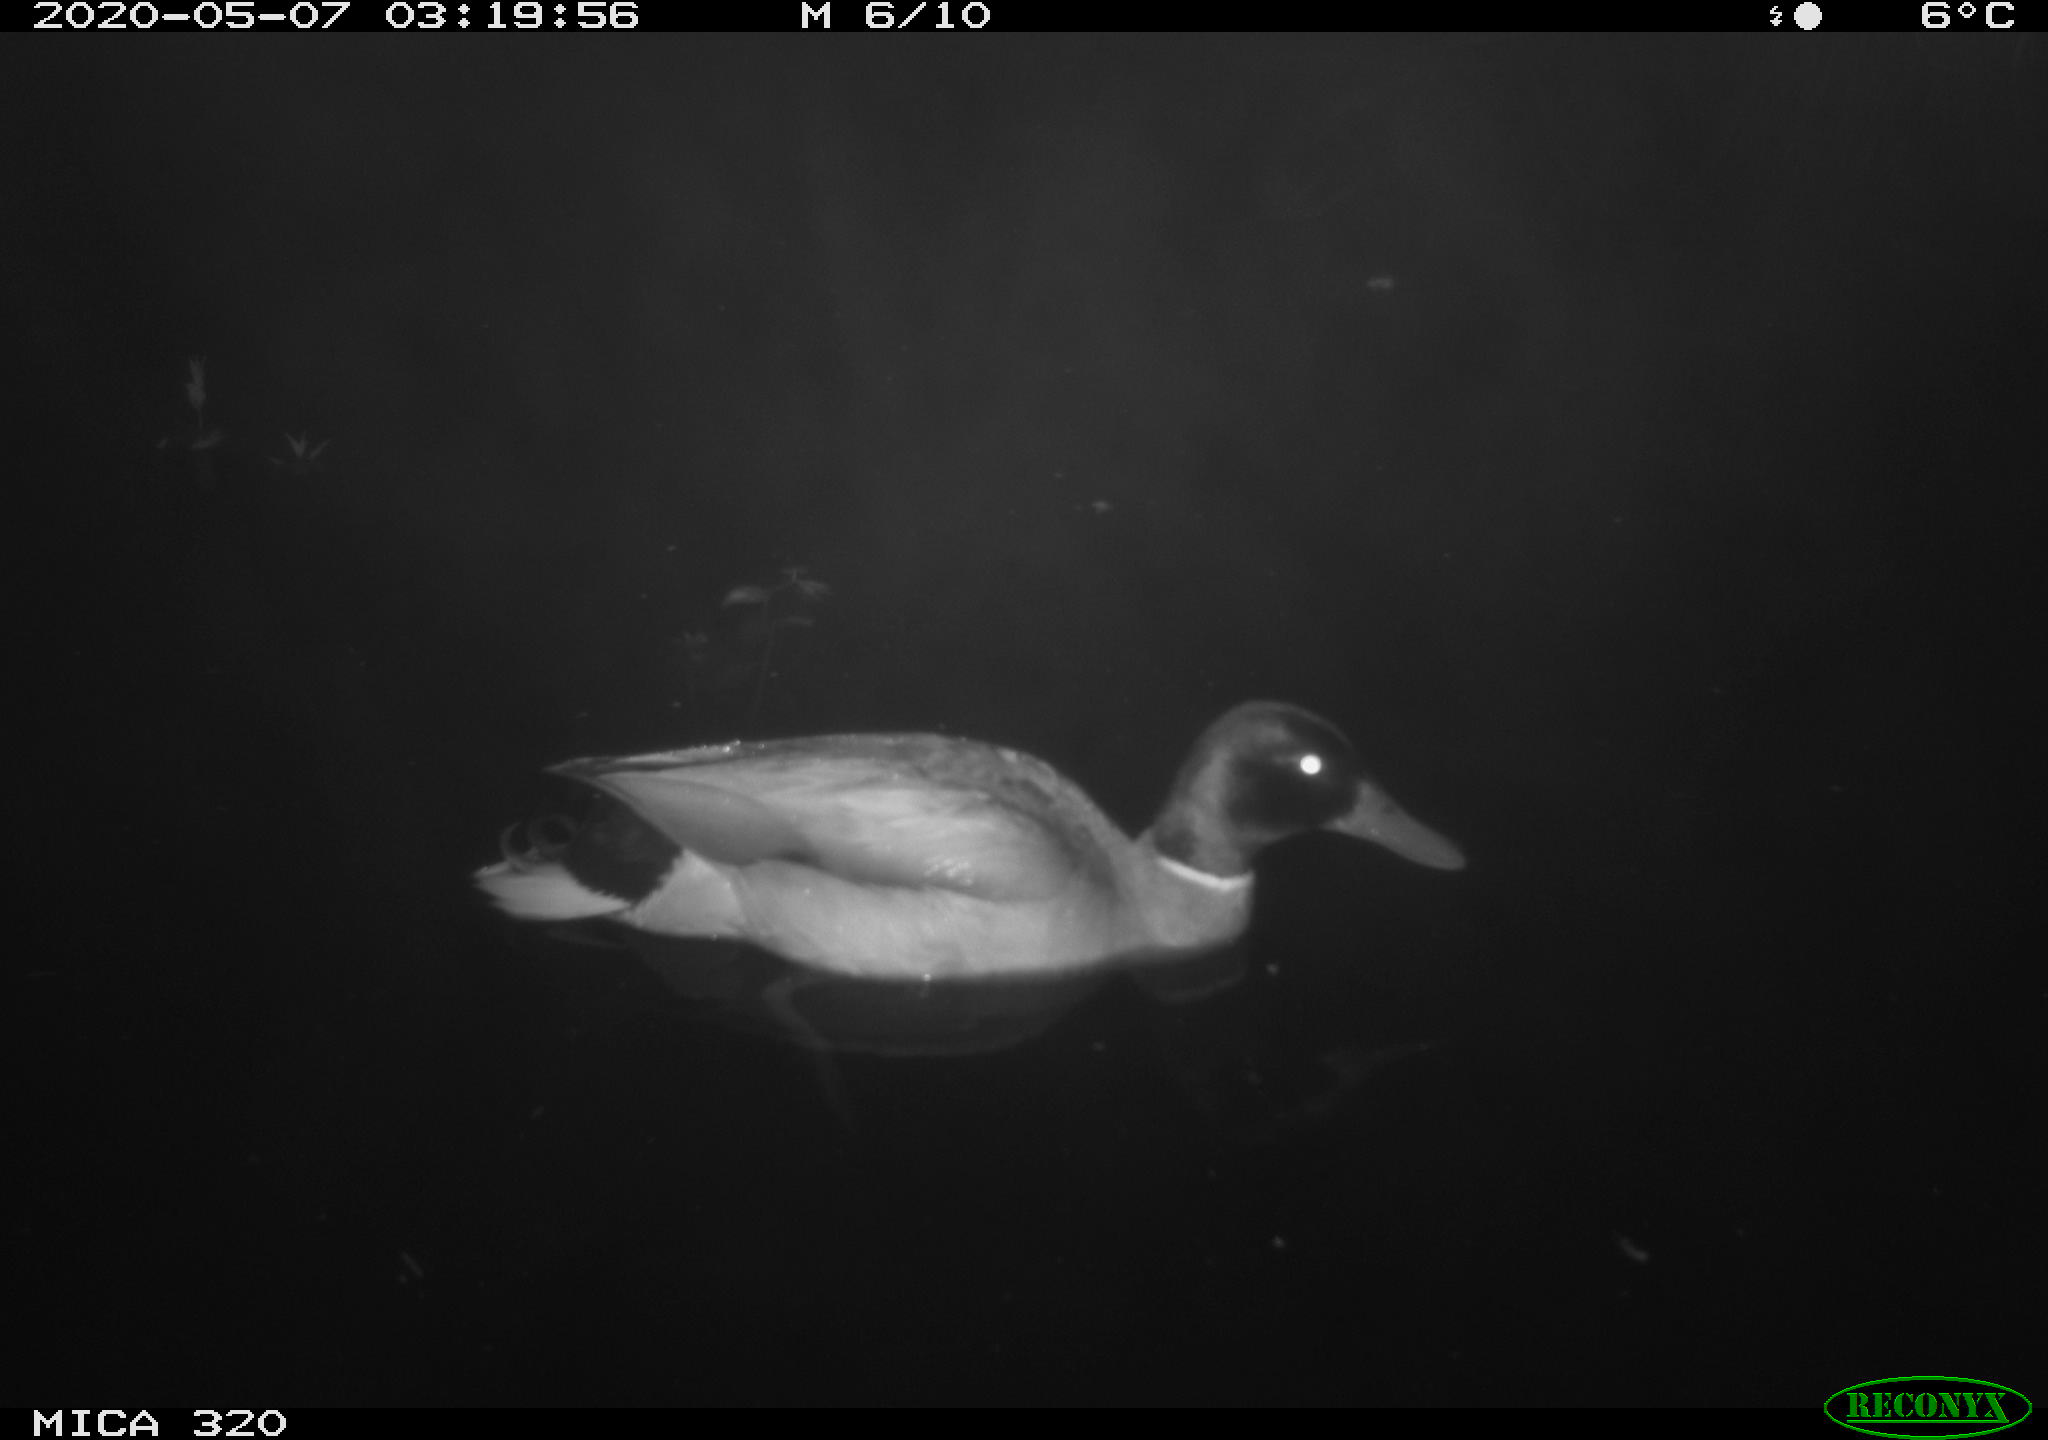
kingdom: Animalia
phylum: Chordata
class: Aves
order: Anseriformes
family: Anatidae
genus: Anas
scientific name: Anas platyrhynchos
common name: Mallard
